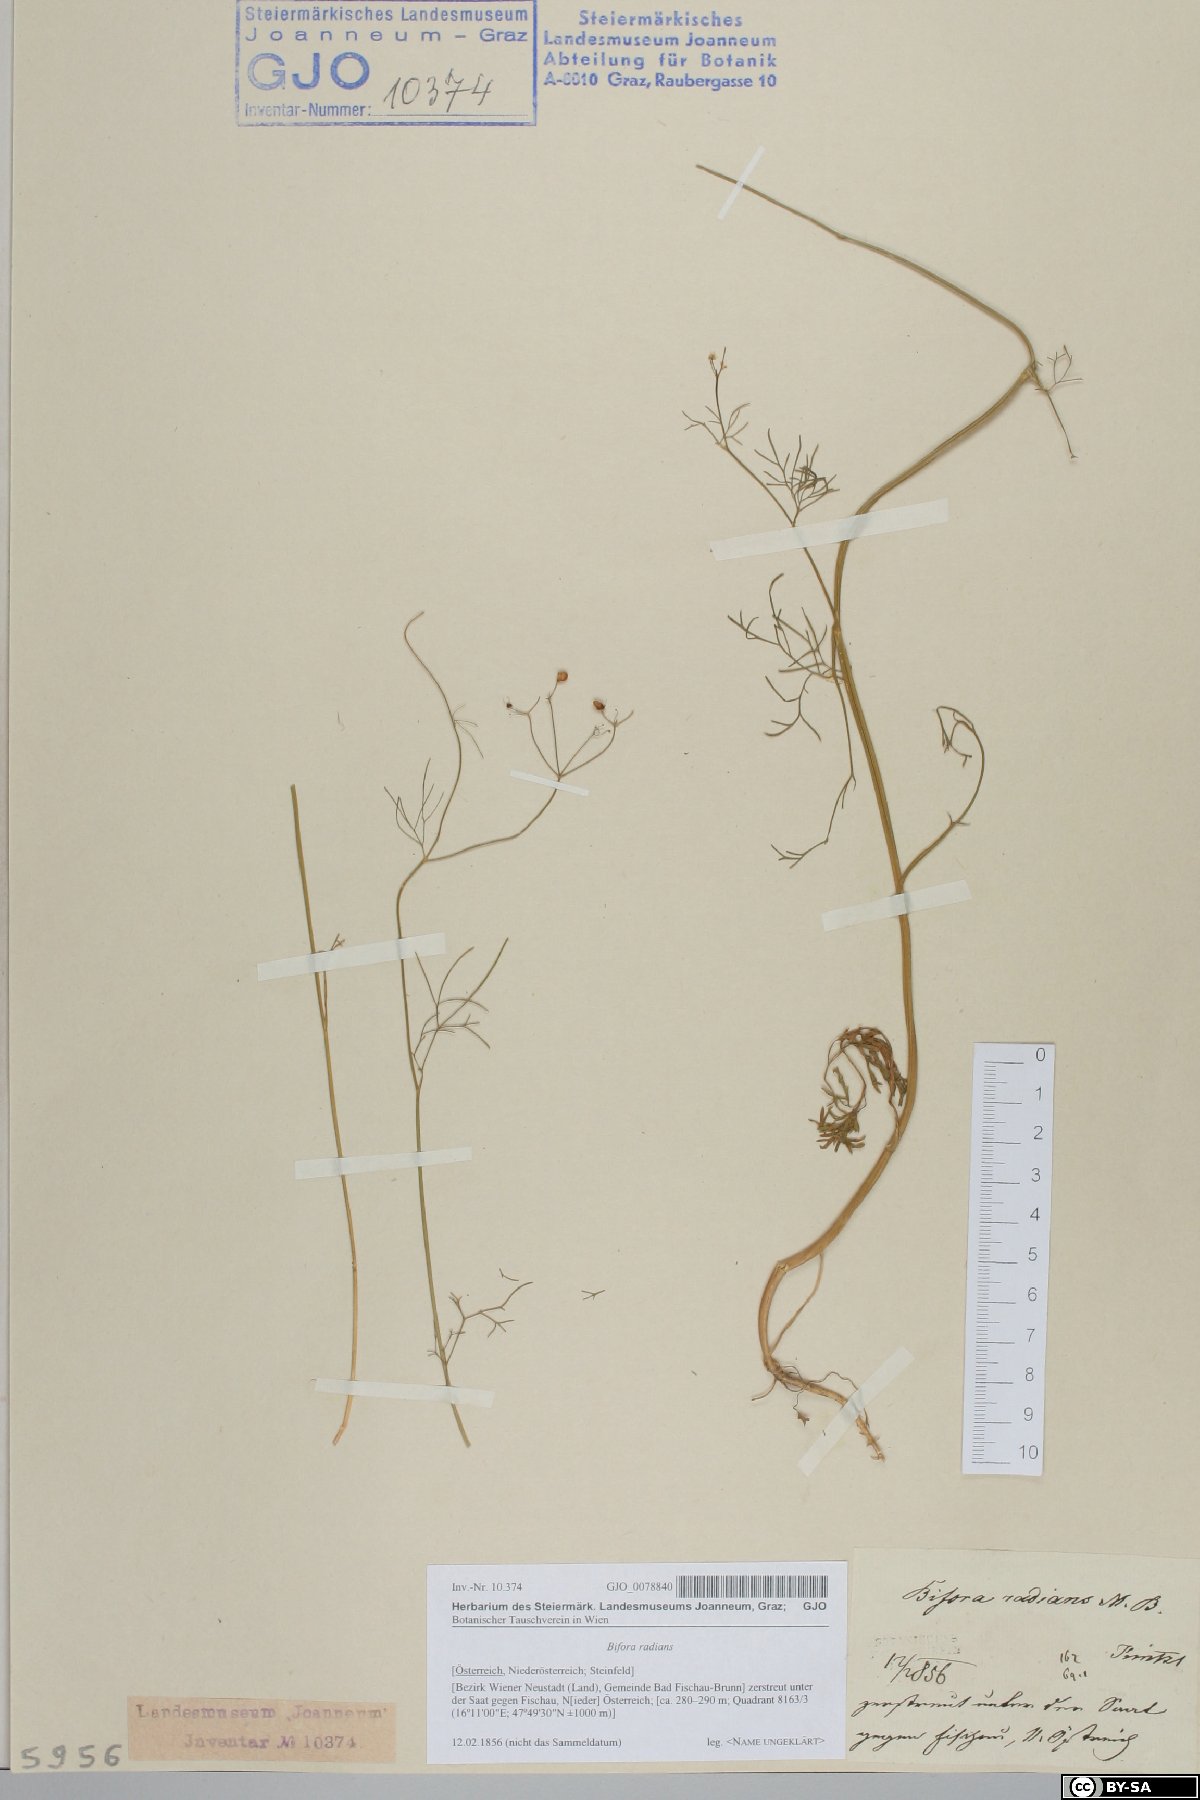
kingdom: Plantae
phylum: Tracheophyta
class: Magnoliopsida
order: Apiales
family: Apiaceae
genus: Bifora
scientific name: Bifora radians
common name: Wild bishop
